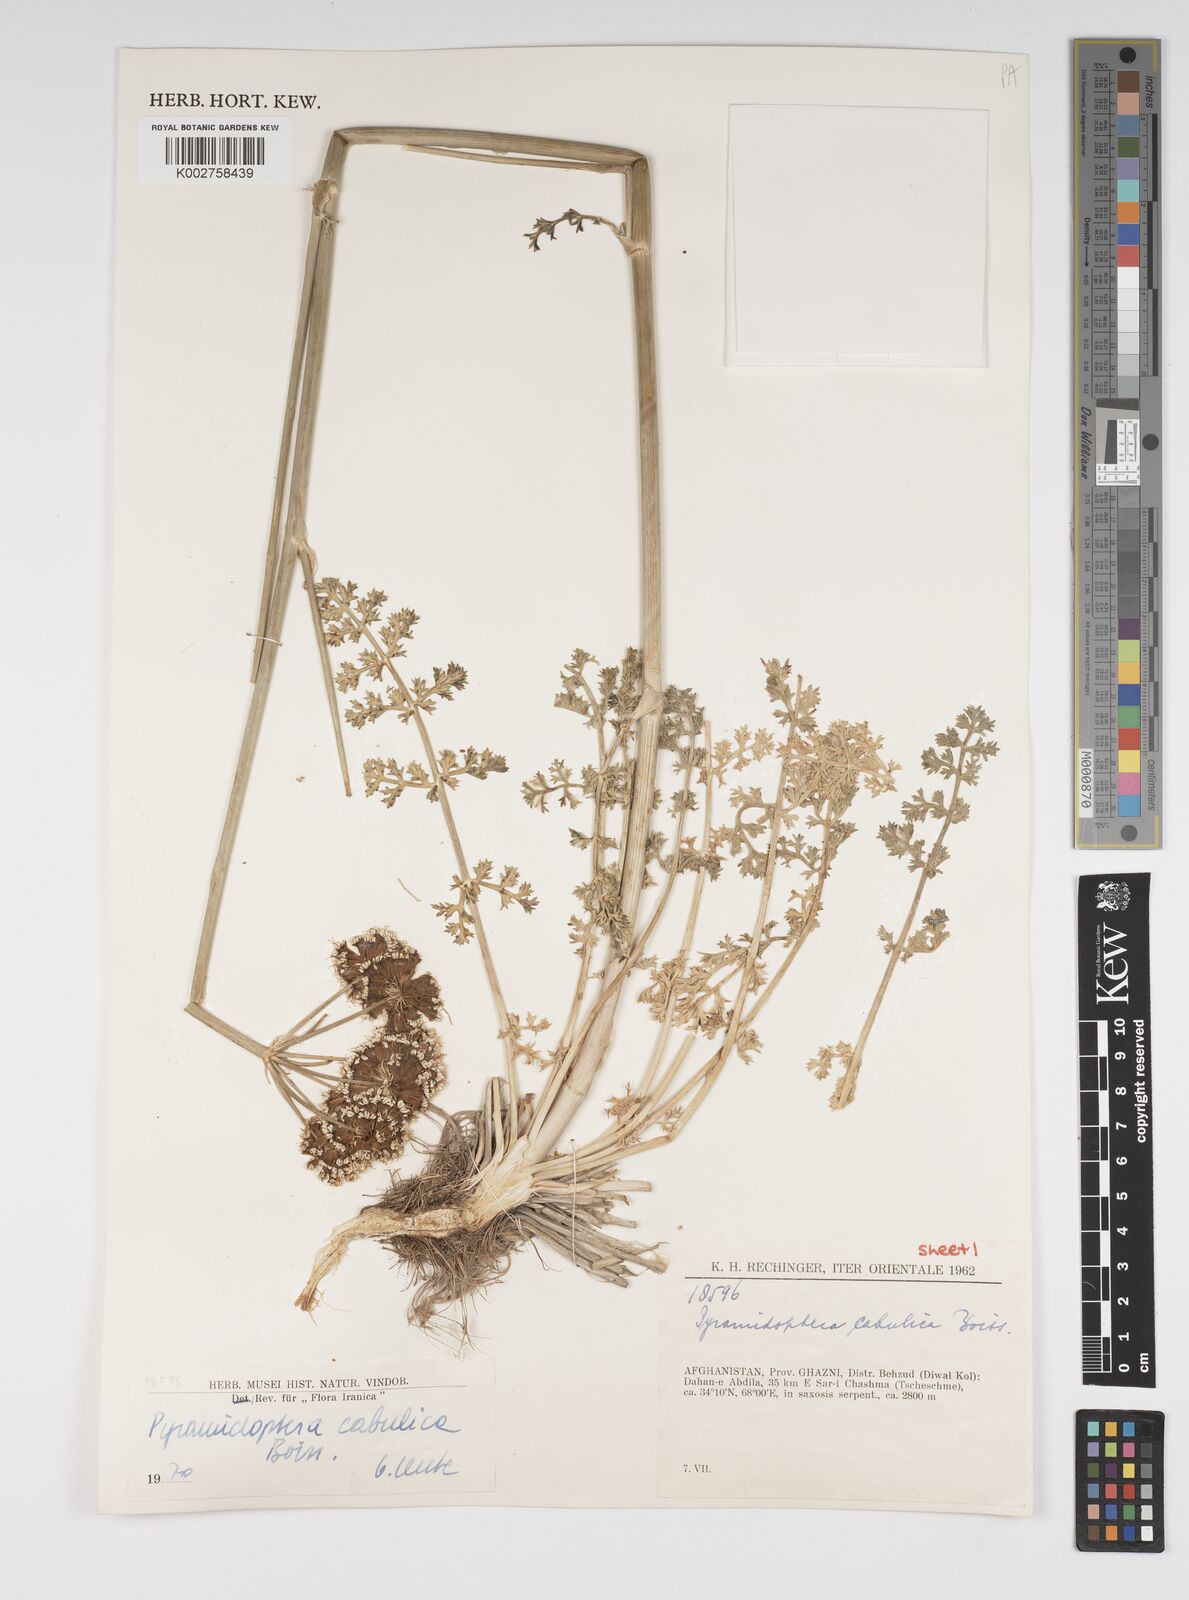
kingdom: Plantae
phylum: Tracheophyta
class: Magnoliopsida
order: Apiales
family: Apiaceae
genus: Pyramidoptera
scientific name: Pyramidoptera cabulica
